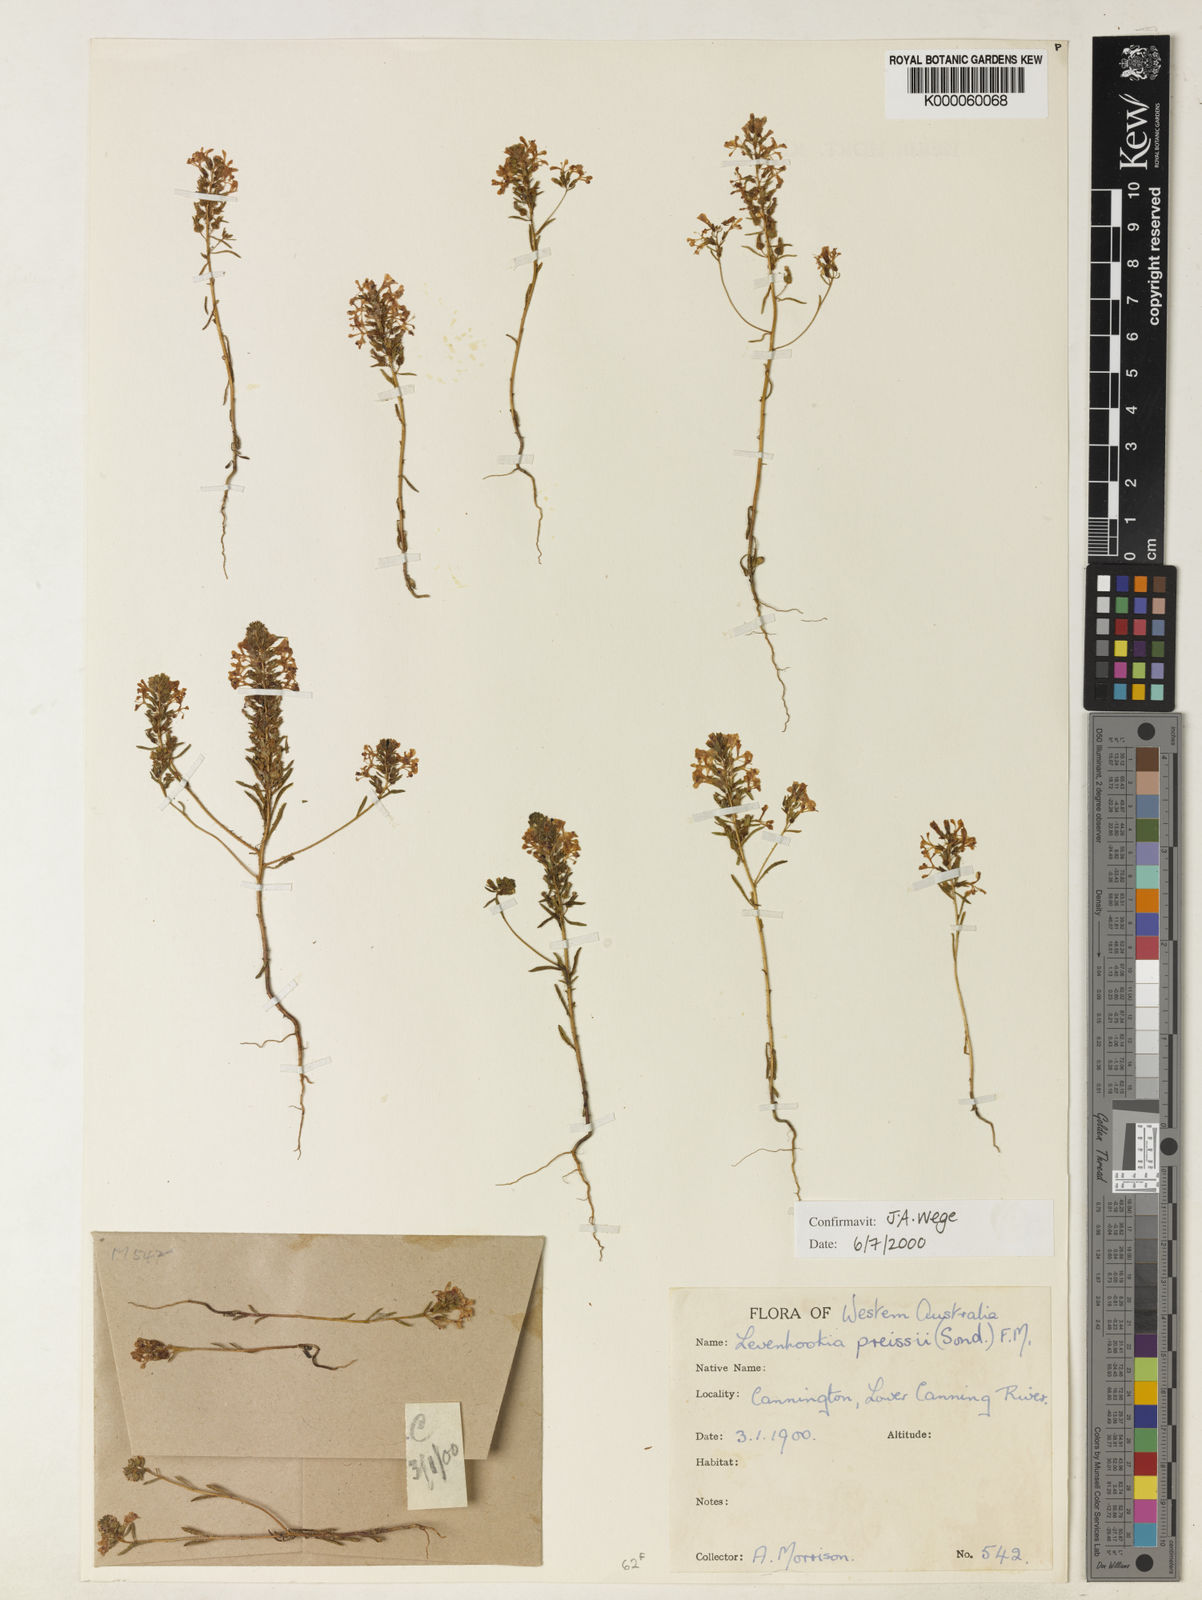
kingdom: Plantae
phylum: Tracheophyta
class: Magnoliopsida
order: Asterales
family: Stylidiaceae
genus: Levenhookia
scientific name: Levenhookia preissii
